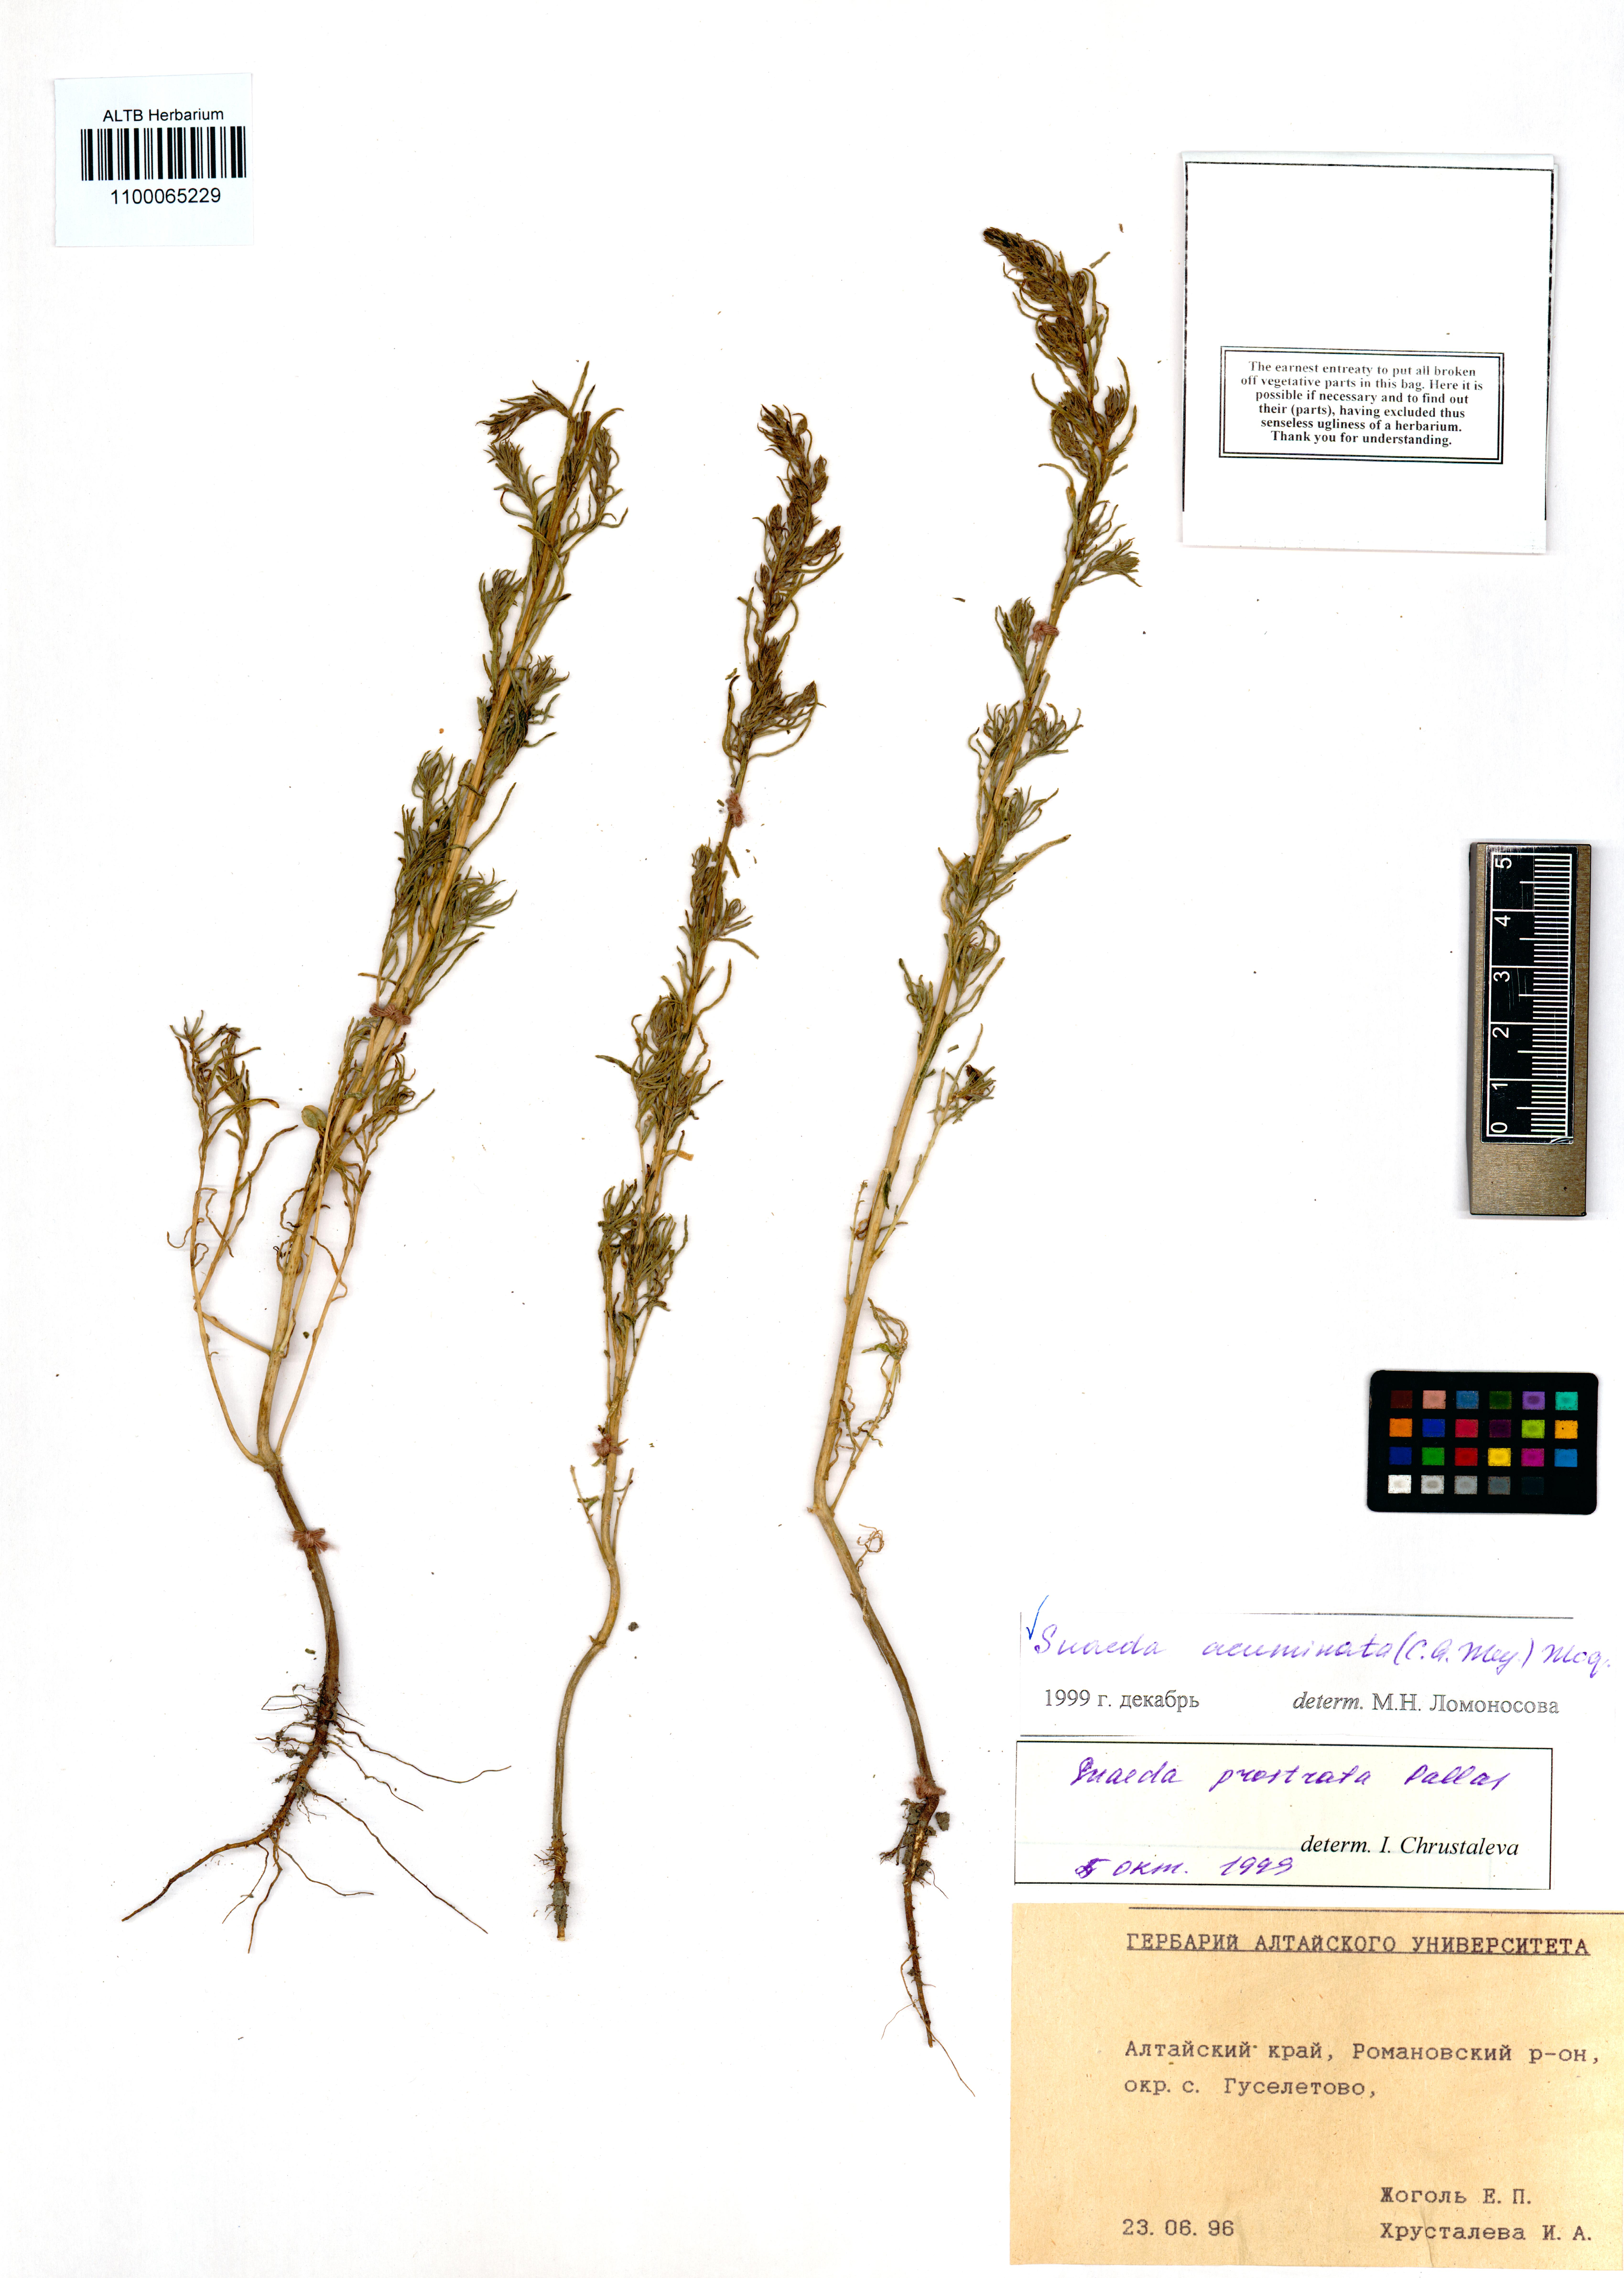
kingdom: Plantae
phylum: Tracheophyta
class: Magnoliopsida
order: Caryophyllales
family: Amaranthaceae
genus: Suaeda
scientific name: Suaeda acuminata
